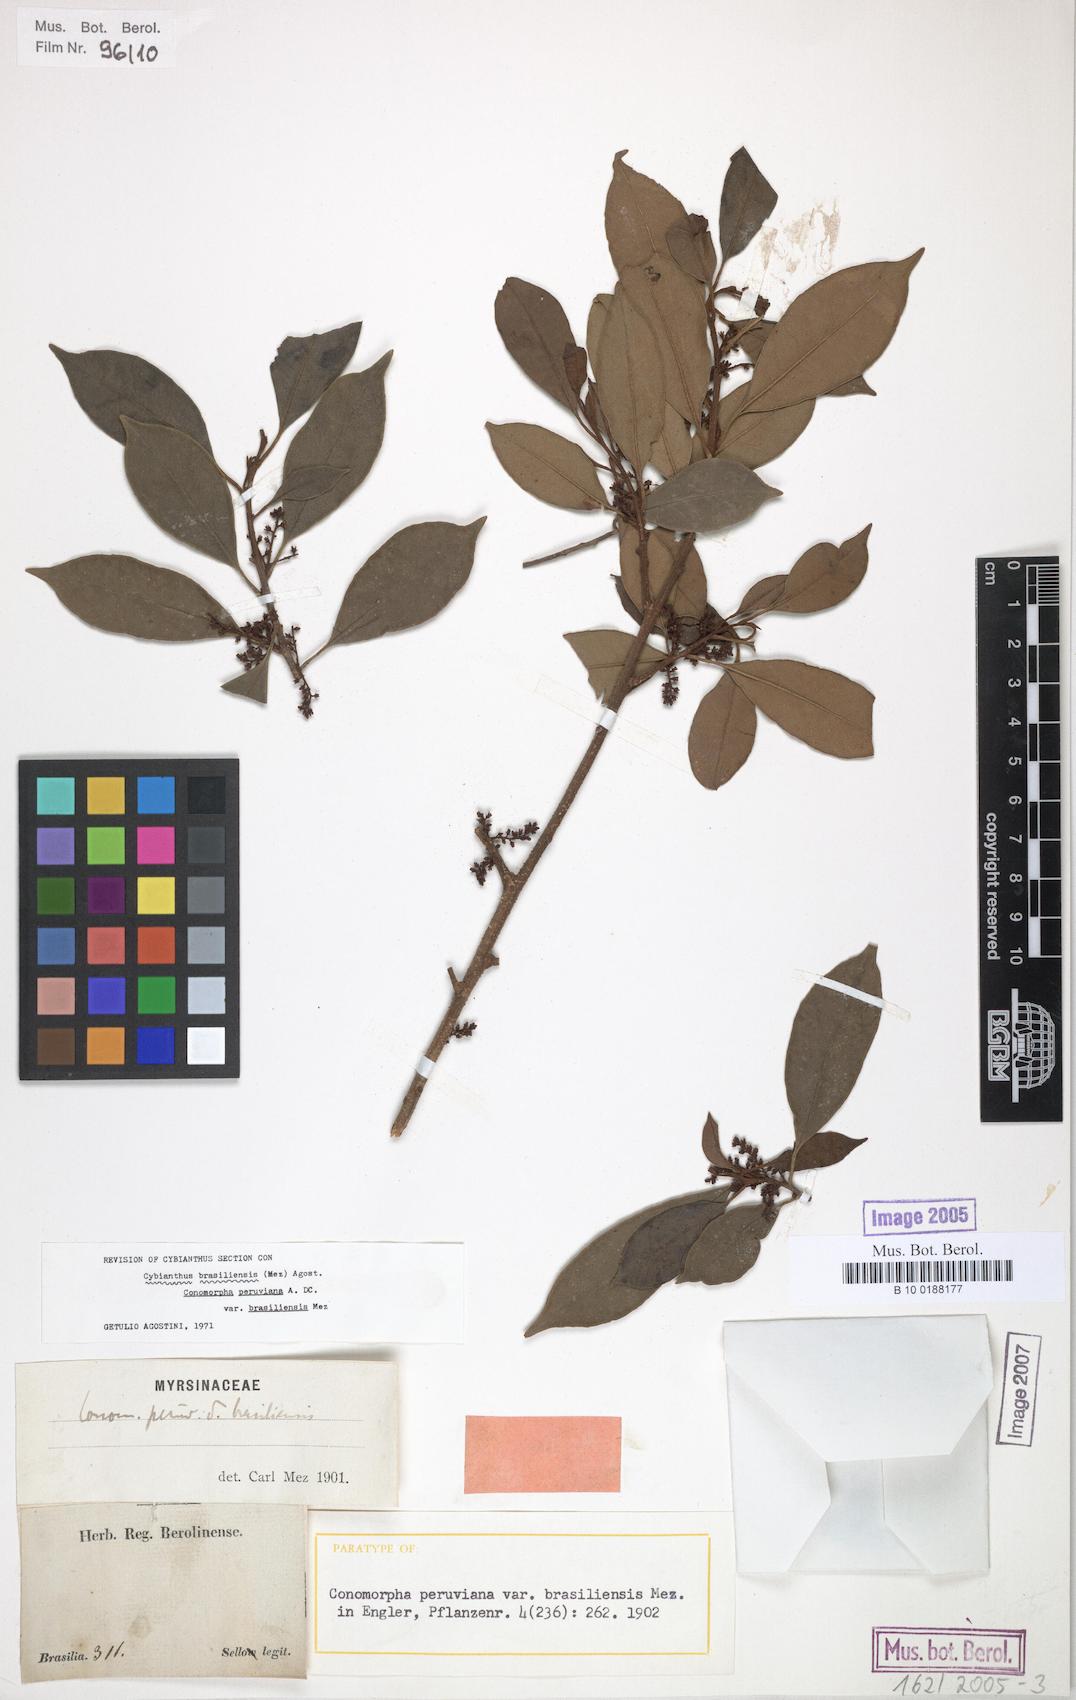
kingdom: Plantae
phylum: Tracheophyta
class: Magnoliopsida
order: Ericales
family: Primulaceae
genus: Cybianthus
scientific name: Cybianthus peruvianus
